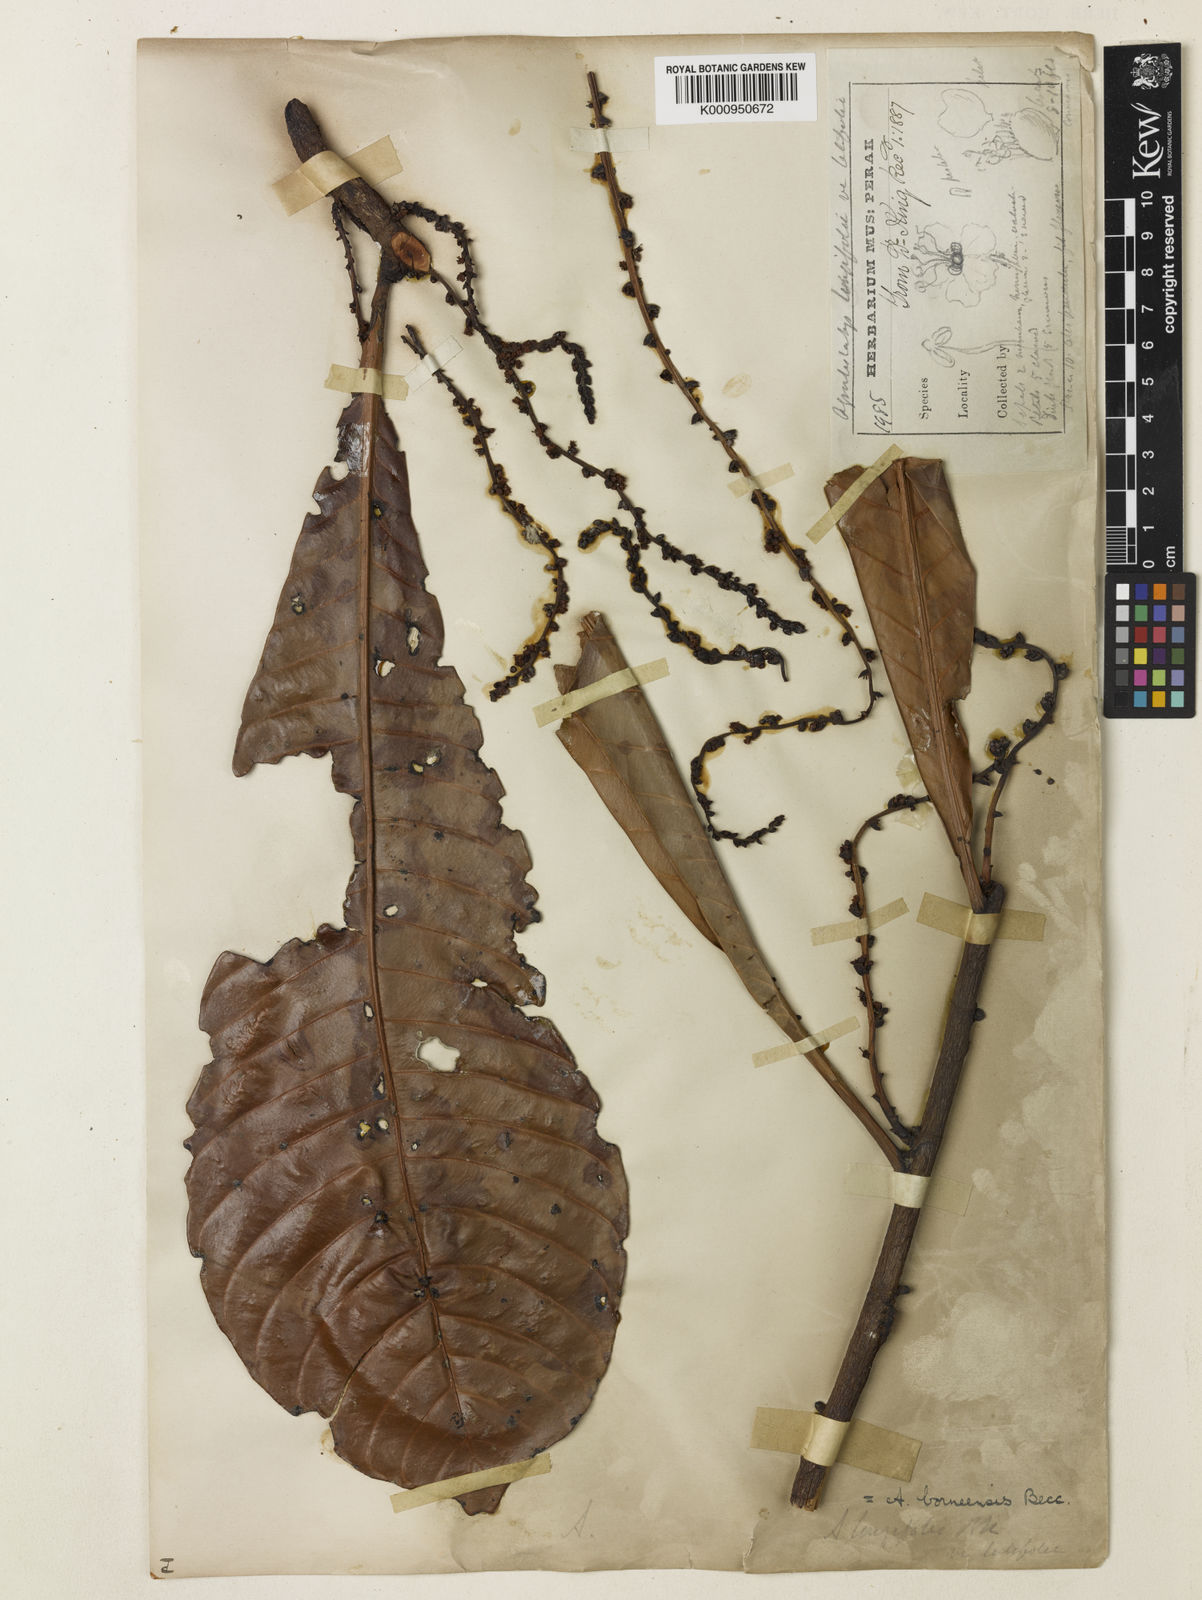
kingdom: Plantae
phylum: Tracheophyta
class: Magnoliopsida
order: Malpighiales
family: Euphorbiaceae
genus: Agrostistachys
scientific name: Agrostistachys borneensis
